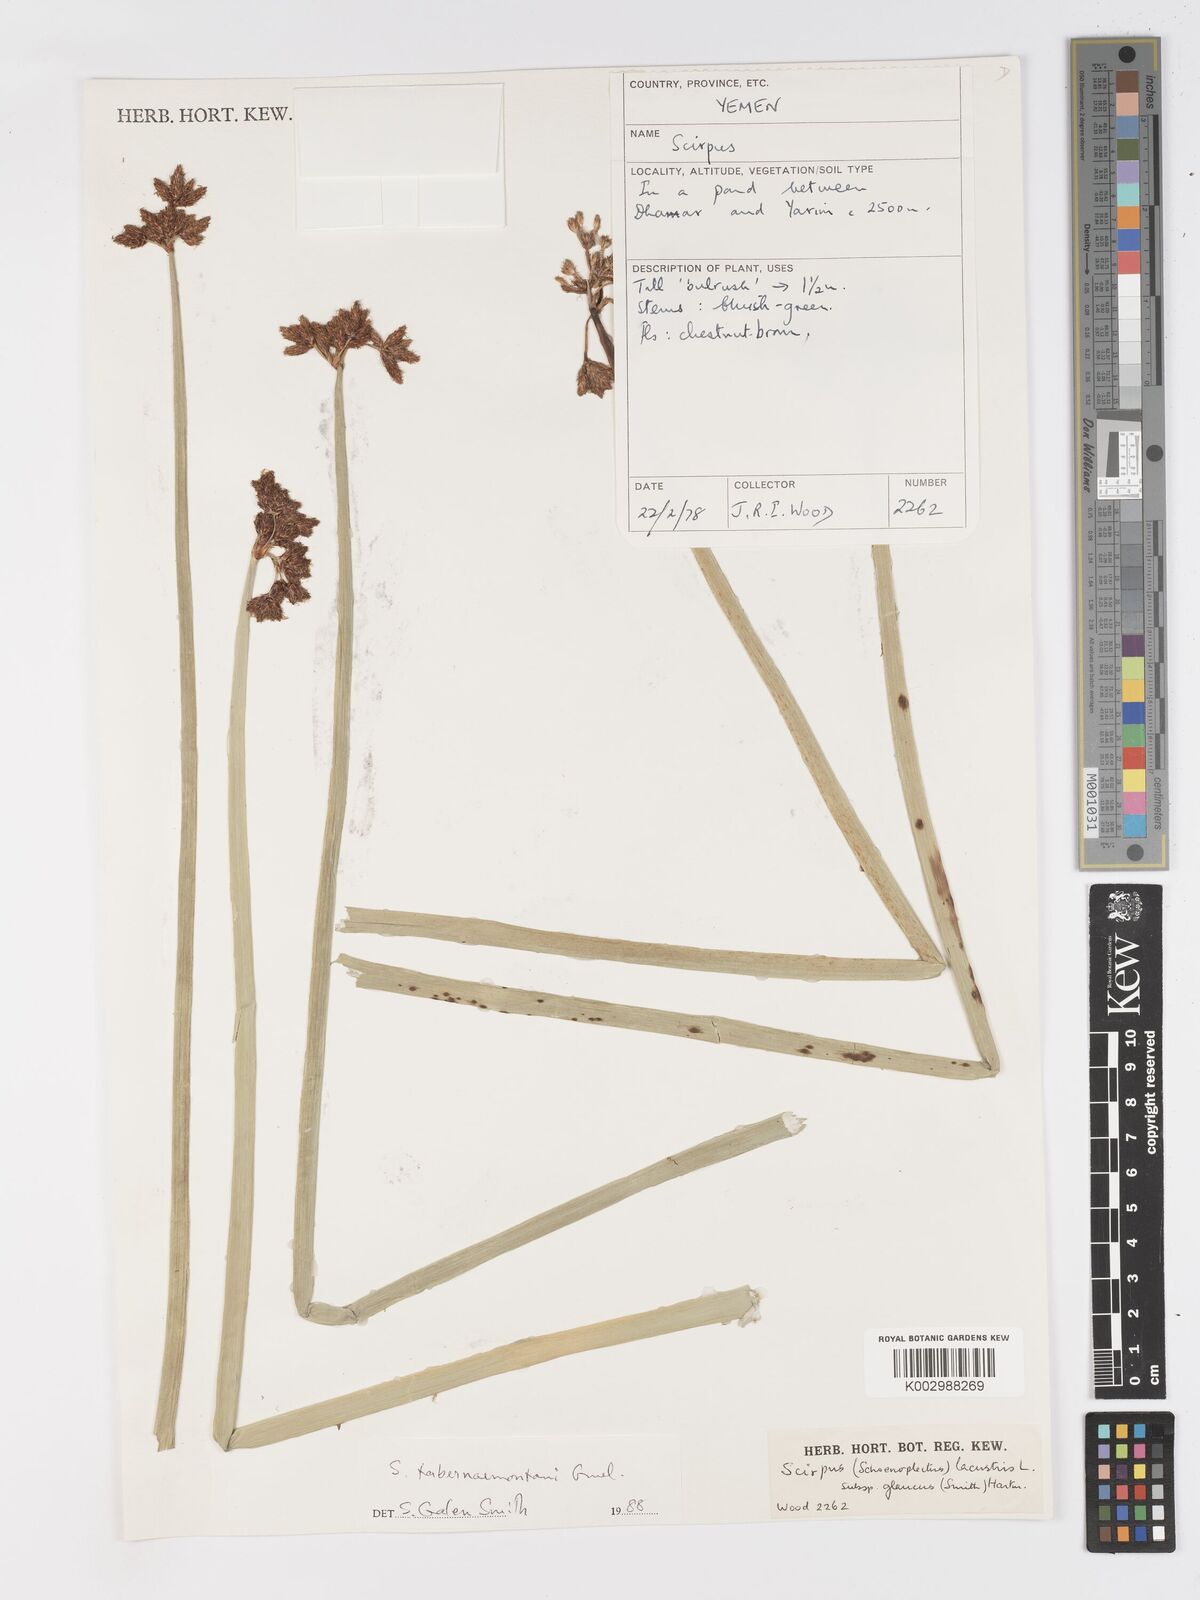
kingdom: Plantae
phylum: Tracheophyta
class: Liliopsida
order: Poales
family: Cyperaceae
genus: Schoenoplectus
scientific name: Schoenoplectus tabernaemontani
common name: Grey club-rush
